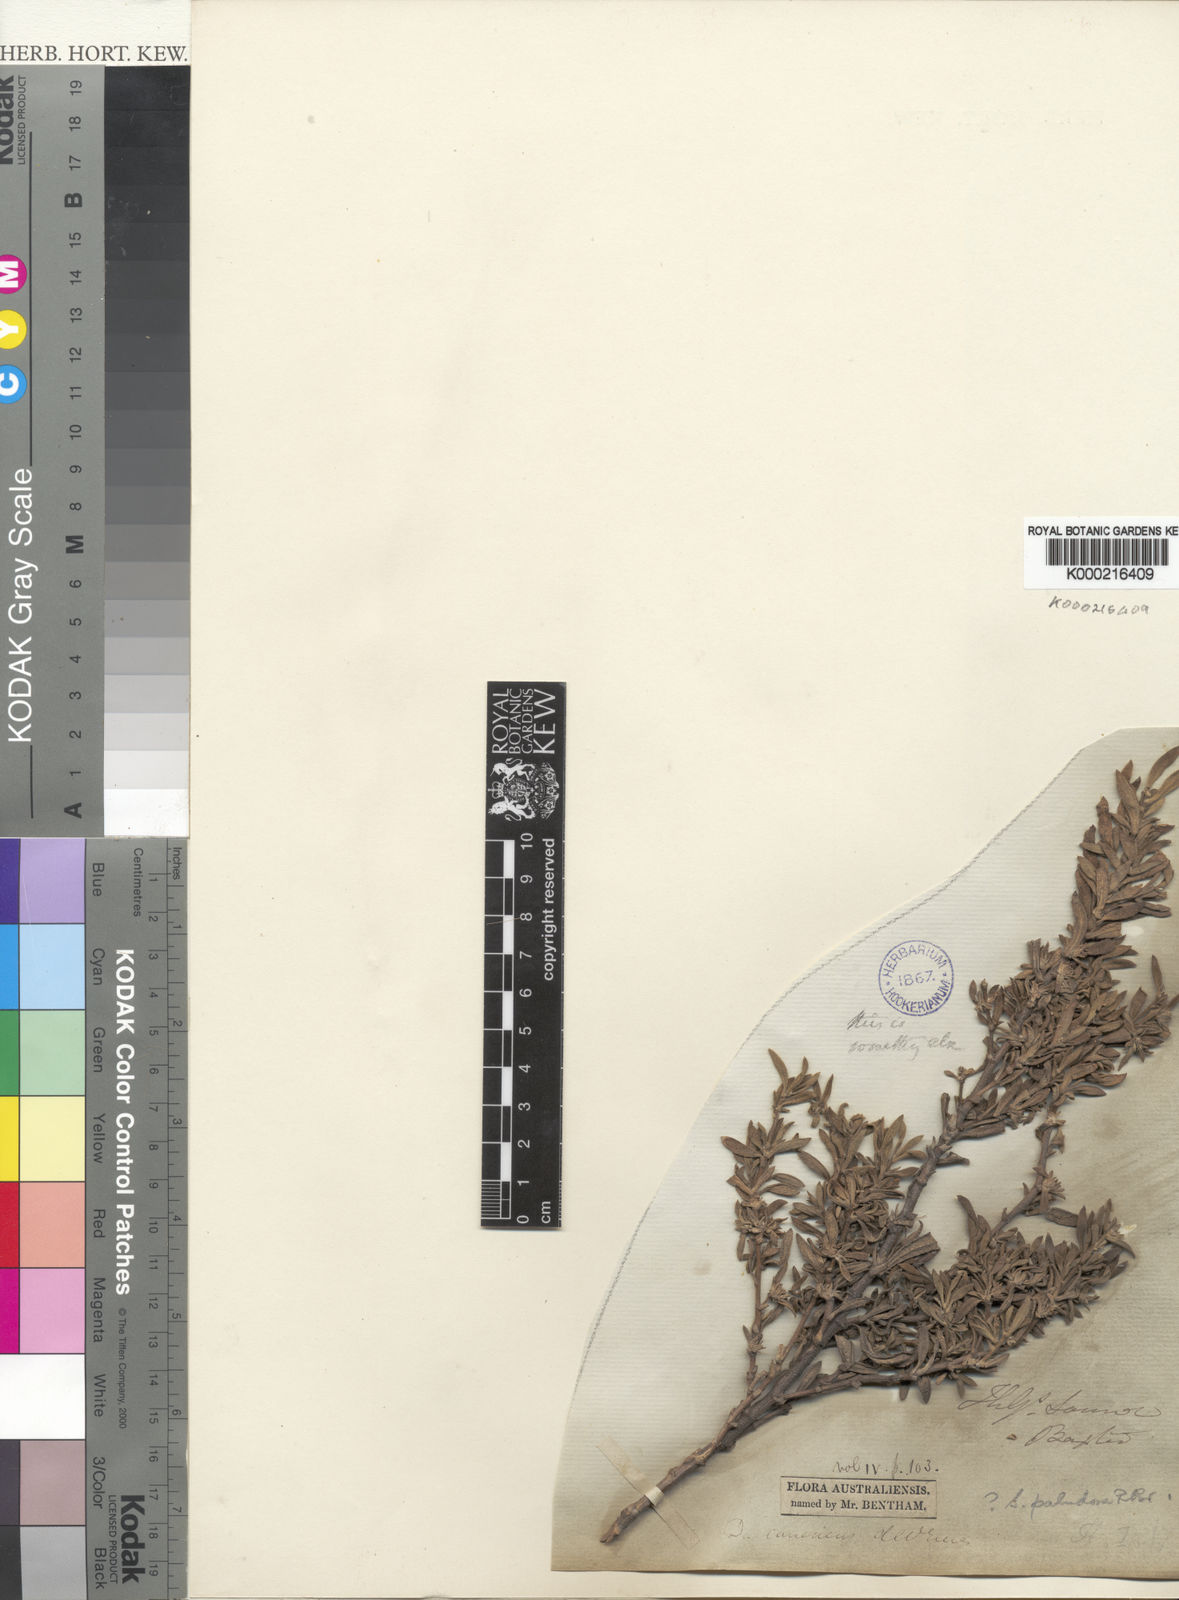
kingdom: Plantae
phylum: Tracheophyta
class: Magnoliopsida
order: Asterales
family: Goodeniaceae
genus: Scaevola
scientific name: Scaevola paludosa
